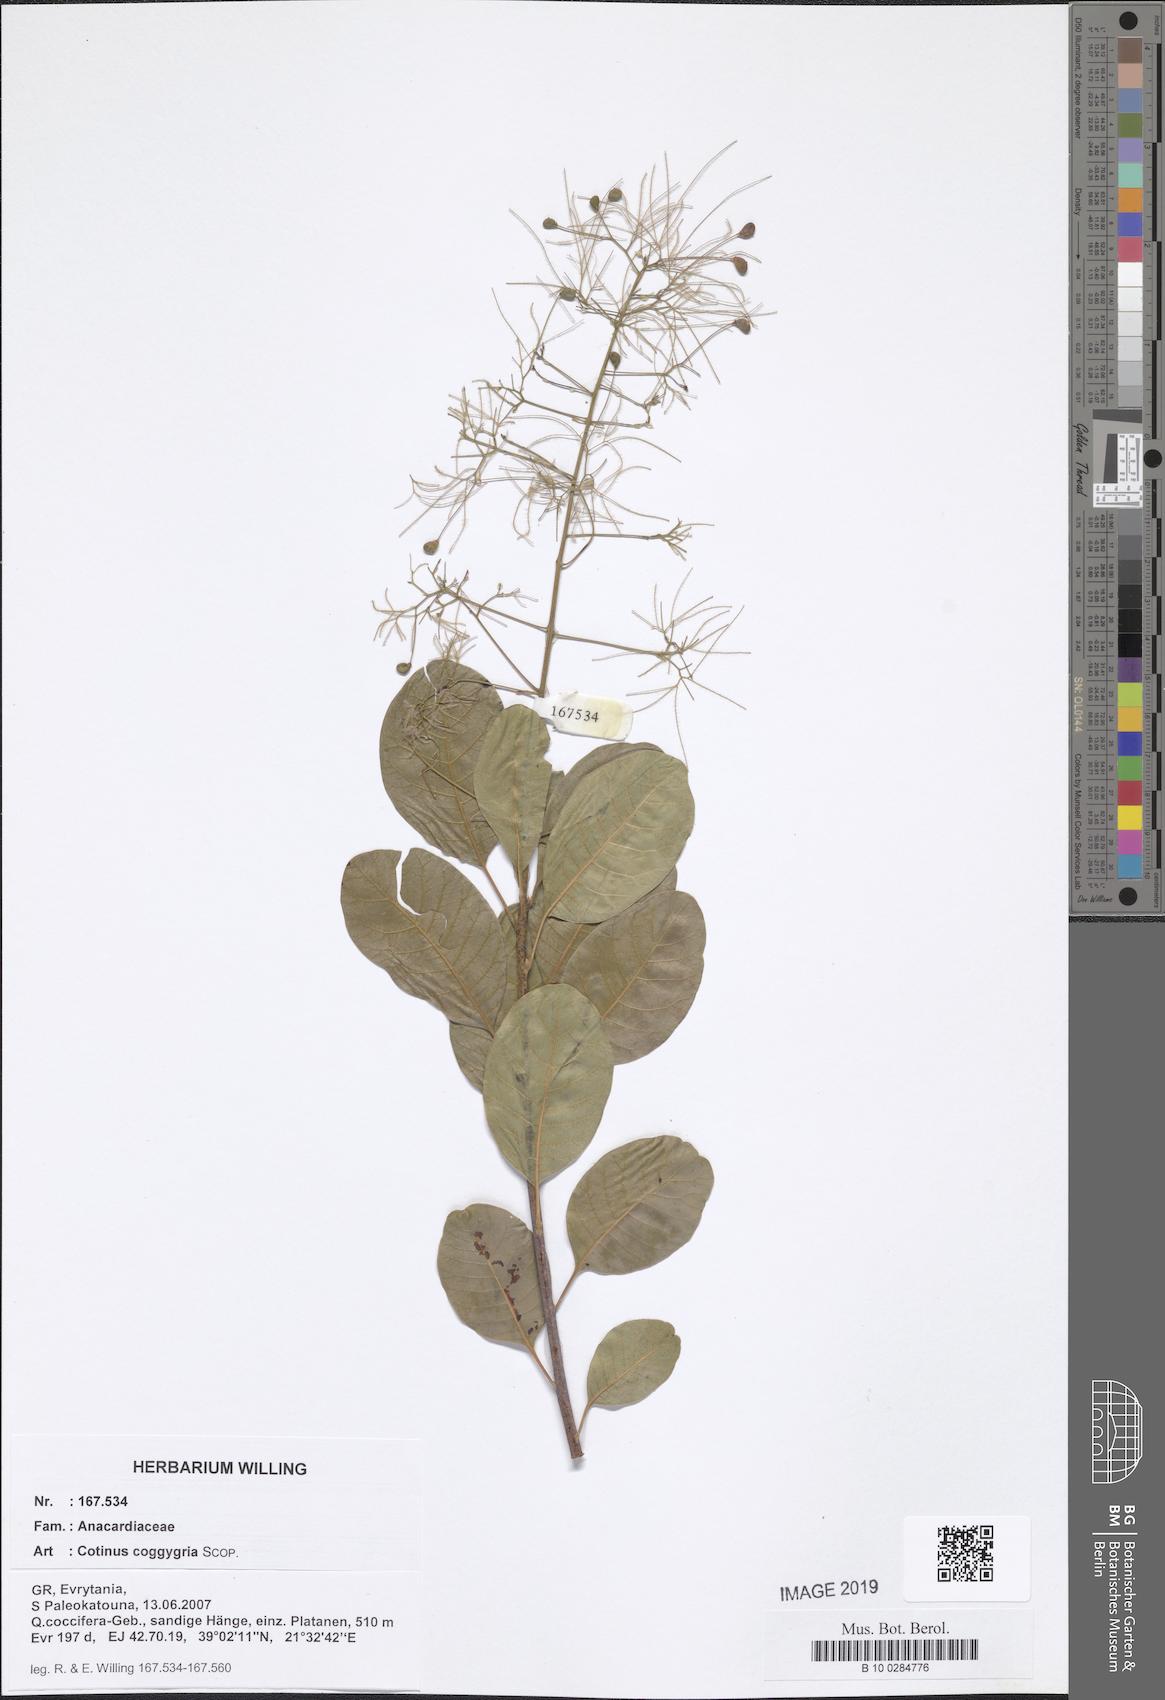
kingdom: Plantae
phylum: Tracheophyta
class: Magnoliopsida
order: Sapindales
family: Anacardiaceae
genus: Cotinus
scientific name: Cotinus coggygria
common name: Smoke-tree
